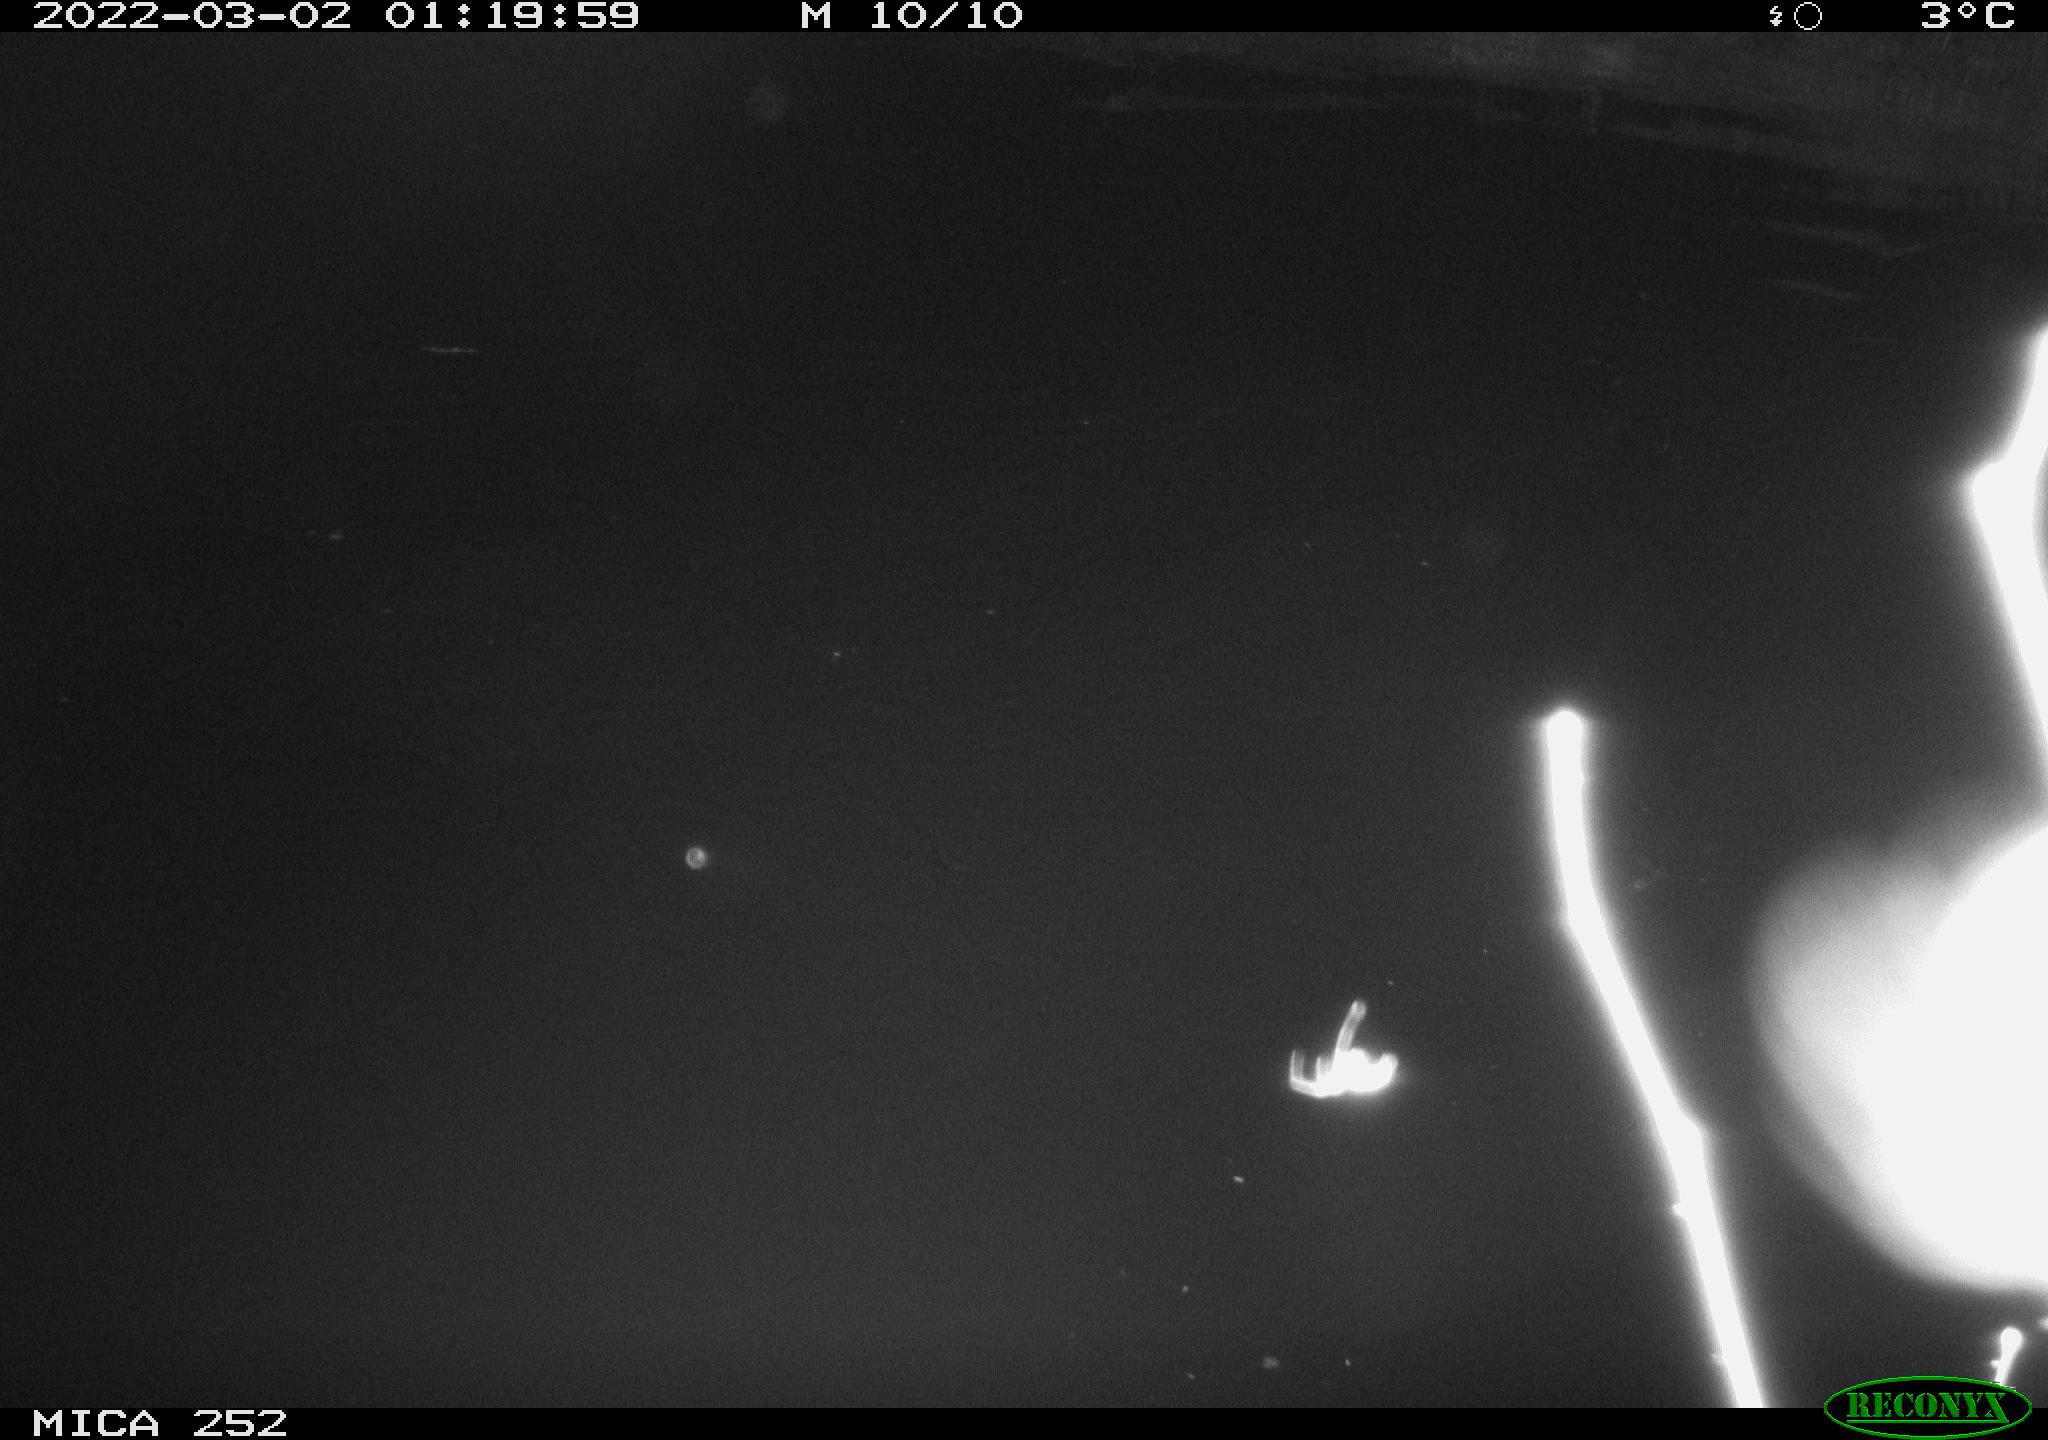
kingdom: Animalia
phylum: Chordata
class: Mammalia
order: Rodentia
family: Castoridae
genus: Castor
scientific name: Castor fiber
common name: Eurasian beaver
